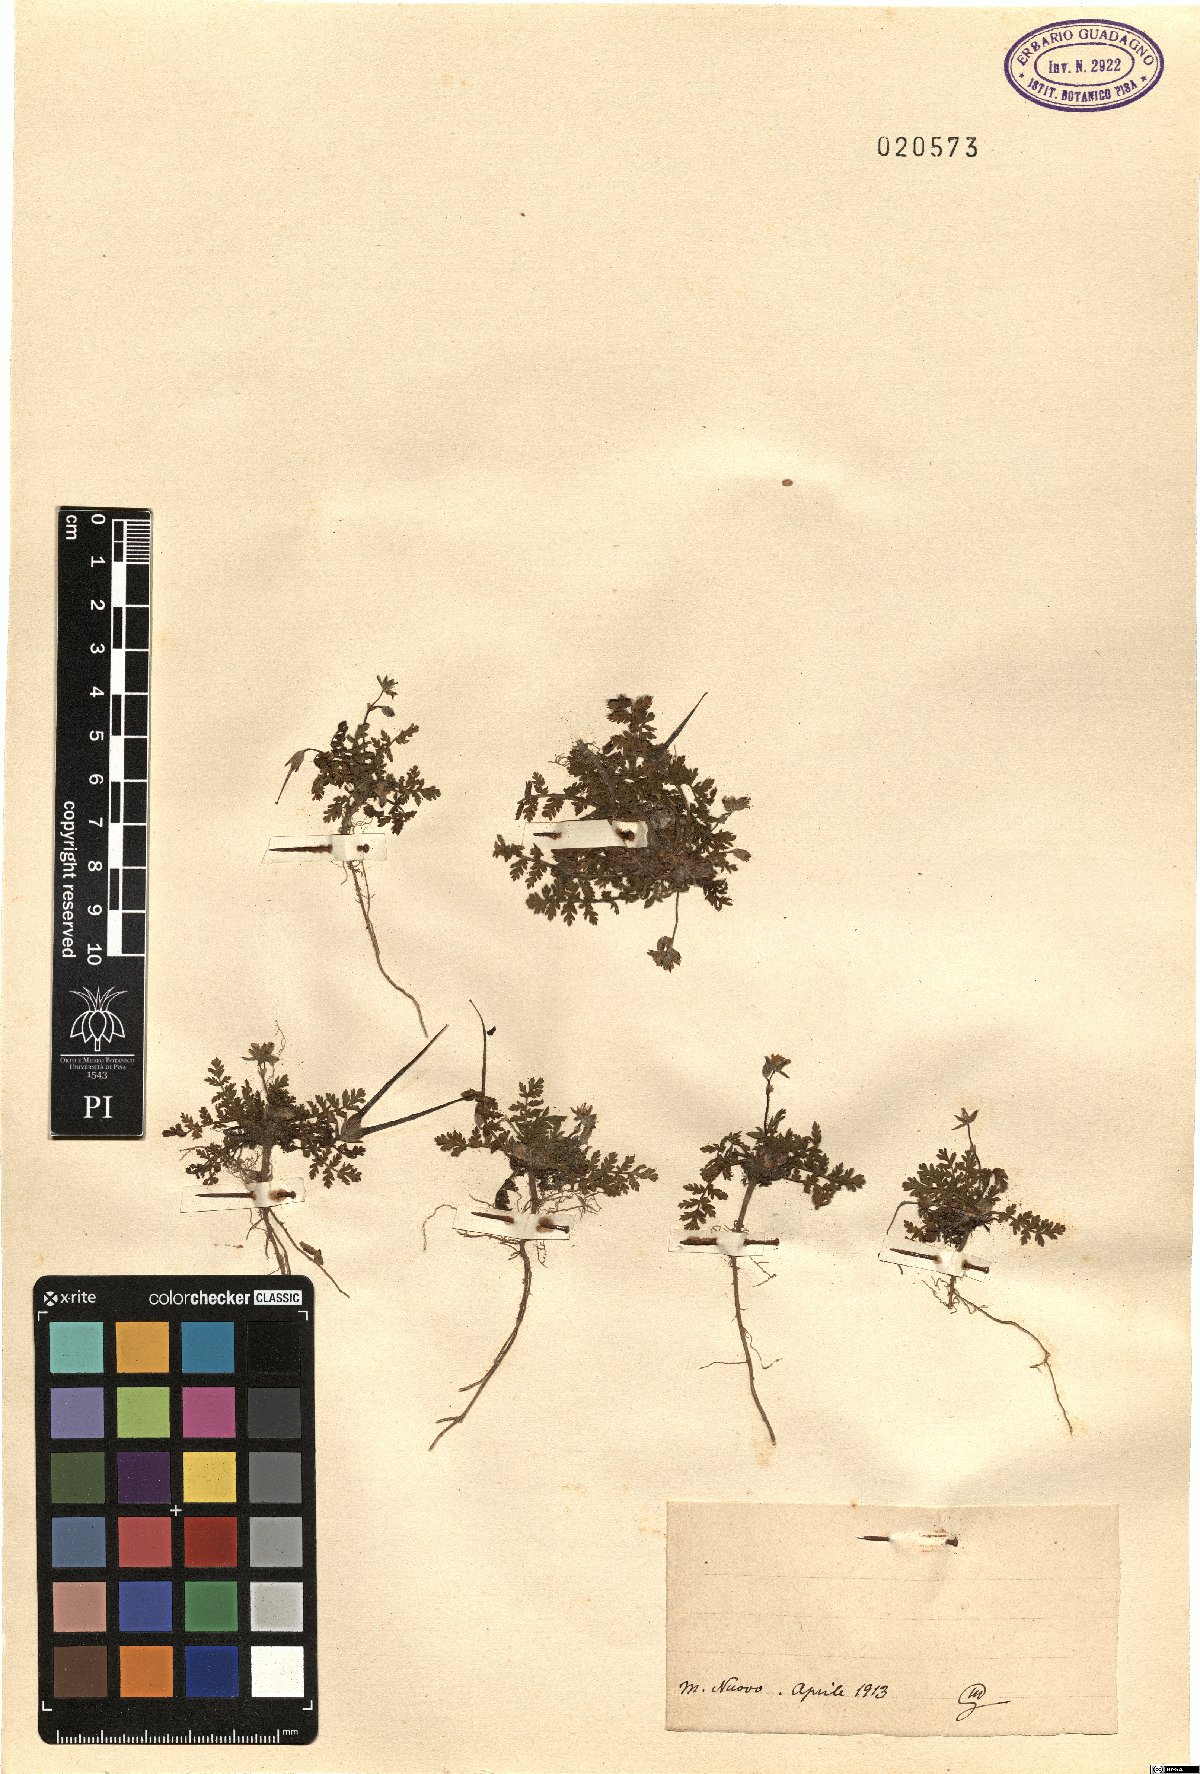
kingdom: Plantae
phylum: Tracheophyta
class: Magnoliopsida
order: Geraniales
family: Geraniaceae
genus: Erodium
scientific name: Erodium
